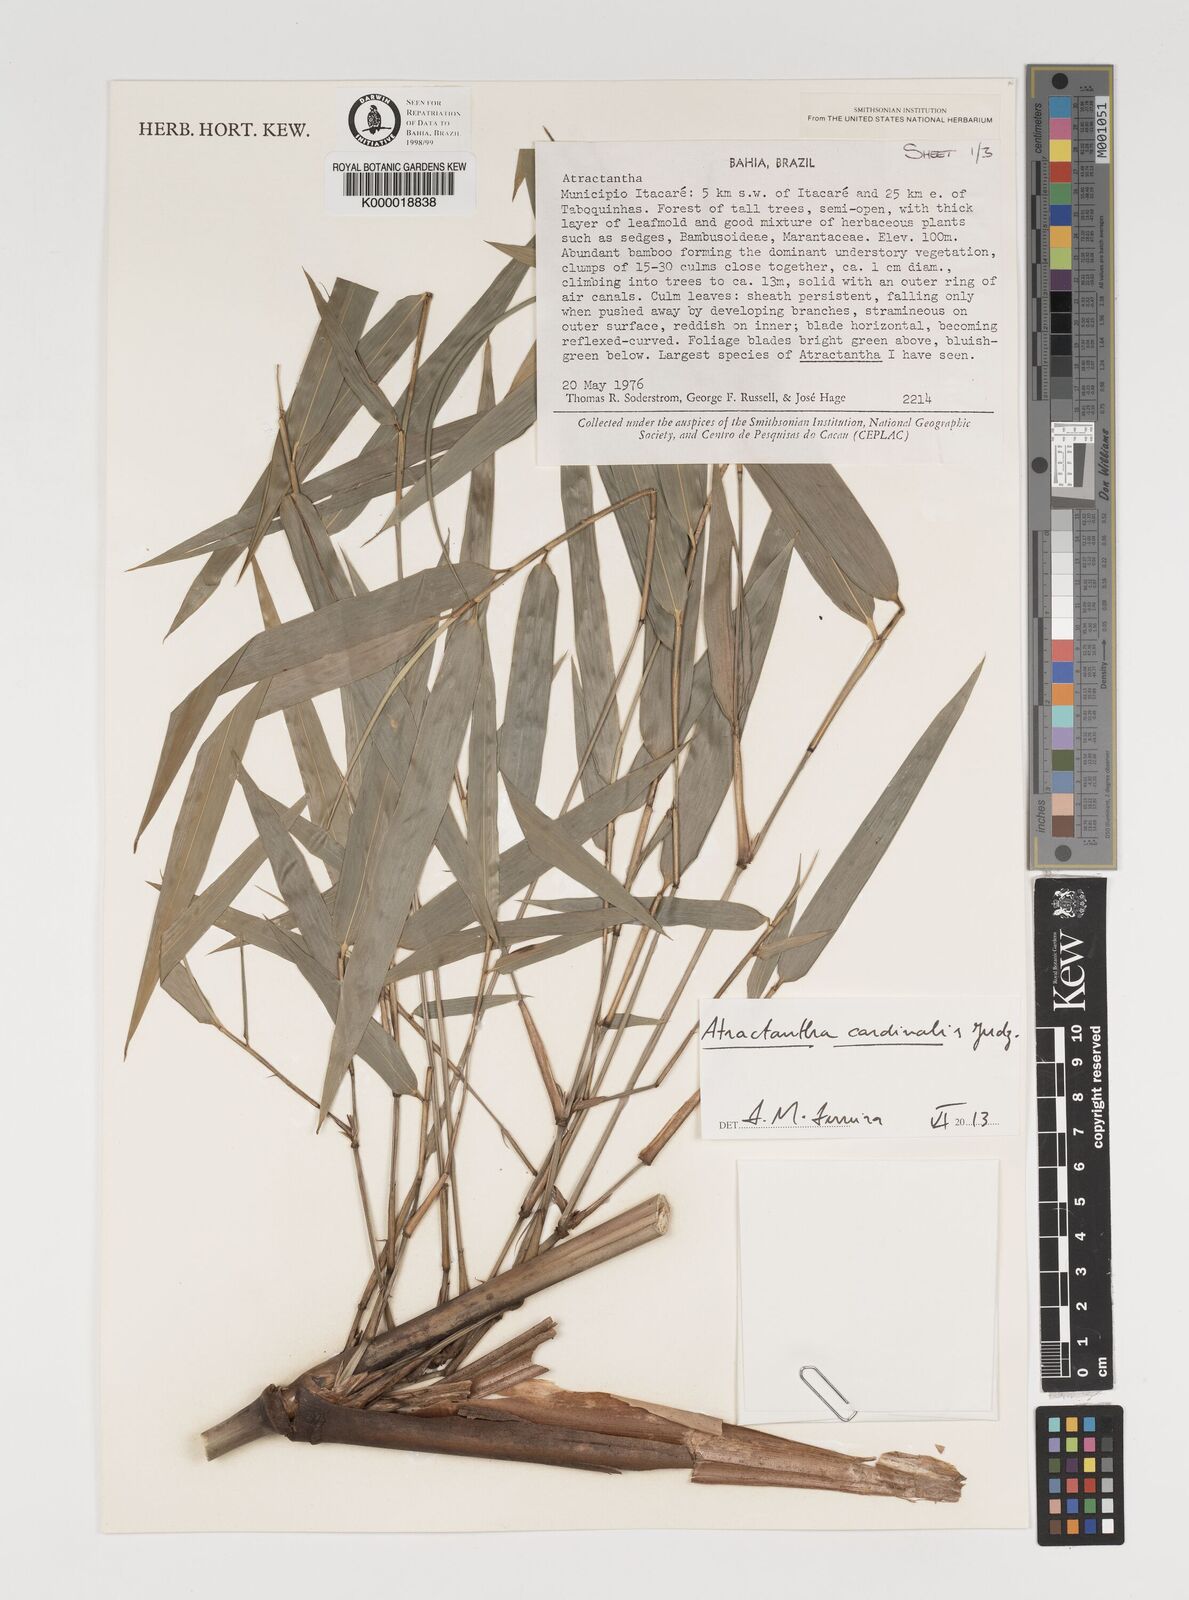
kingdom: Plantae
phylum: Tracheophyta
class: Liliopsida
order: Poales
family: Poaceae
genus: Atractantha
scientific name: Atractantha aureolanata
